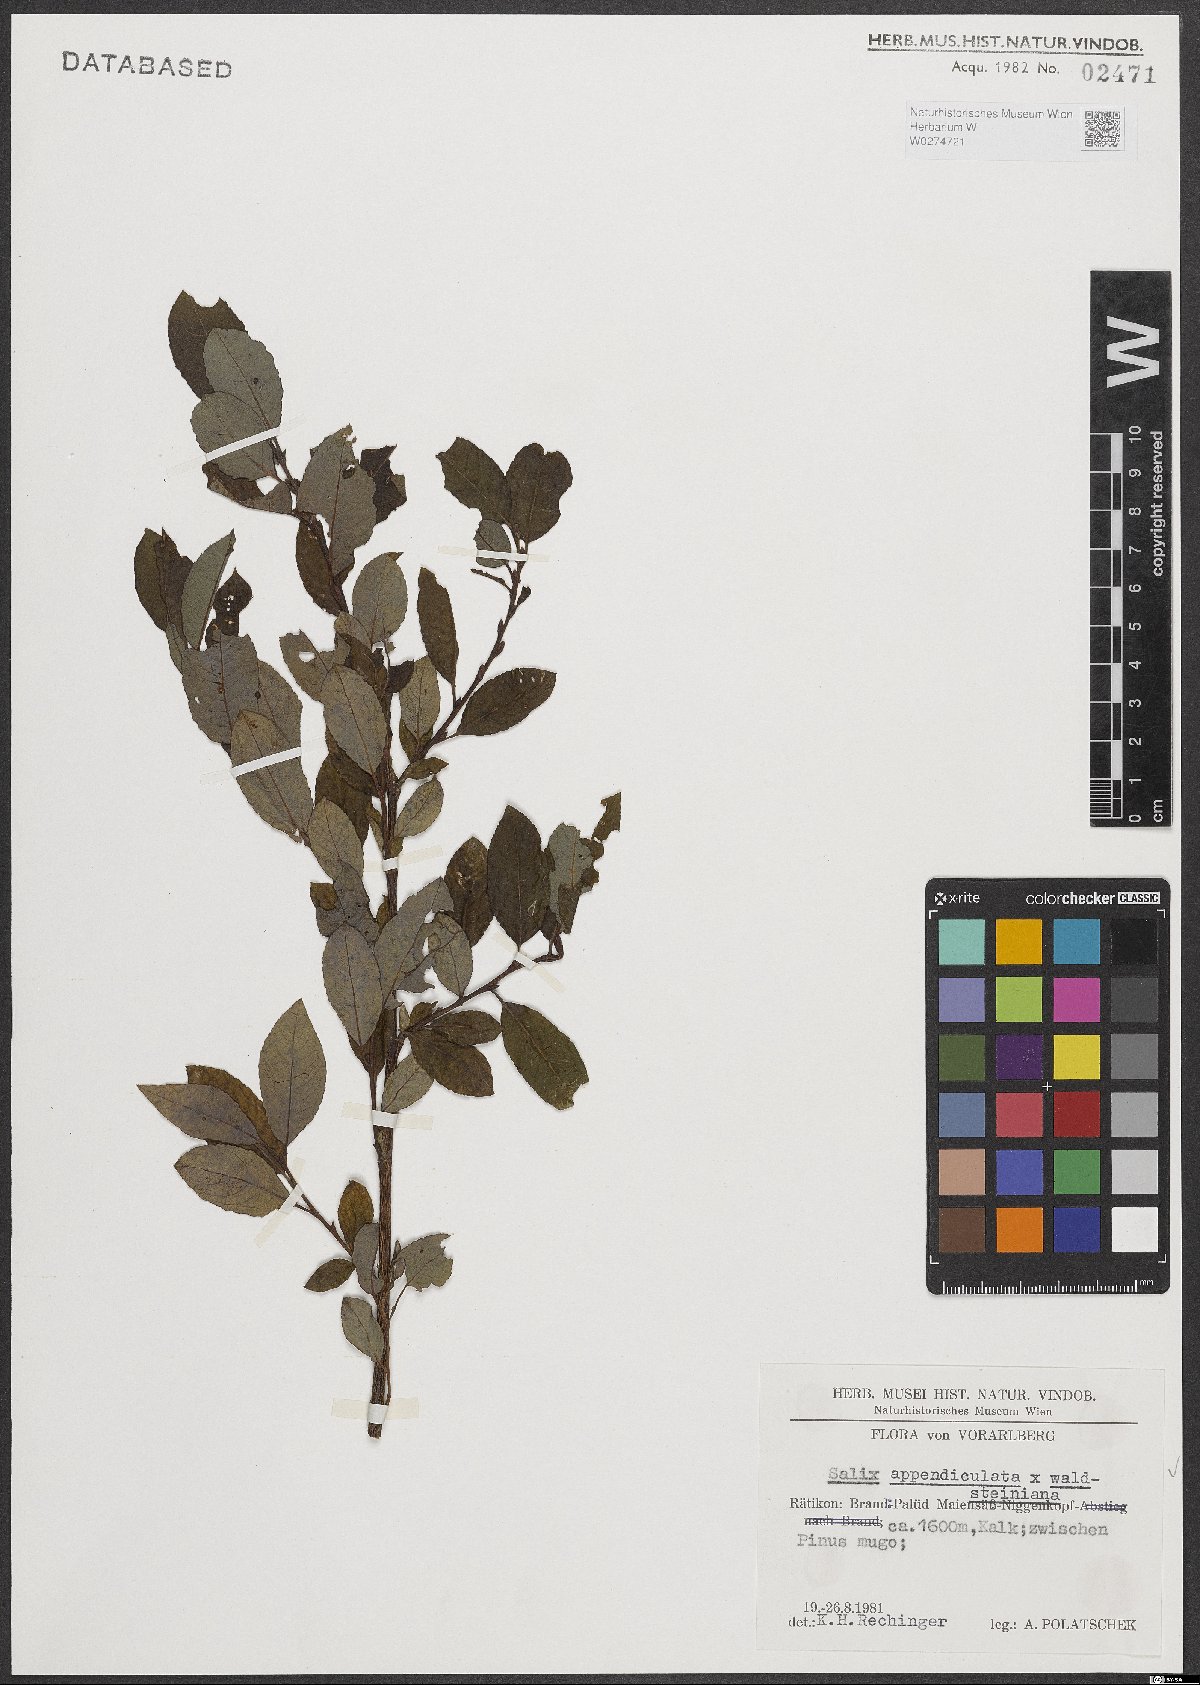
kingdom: Plantae
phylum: Tracheophyta
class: Magnoliopsida
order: Malpighiales
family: Salicaceae
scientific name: Salicaceae
